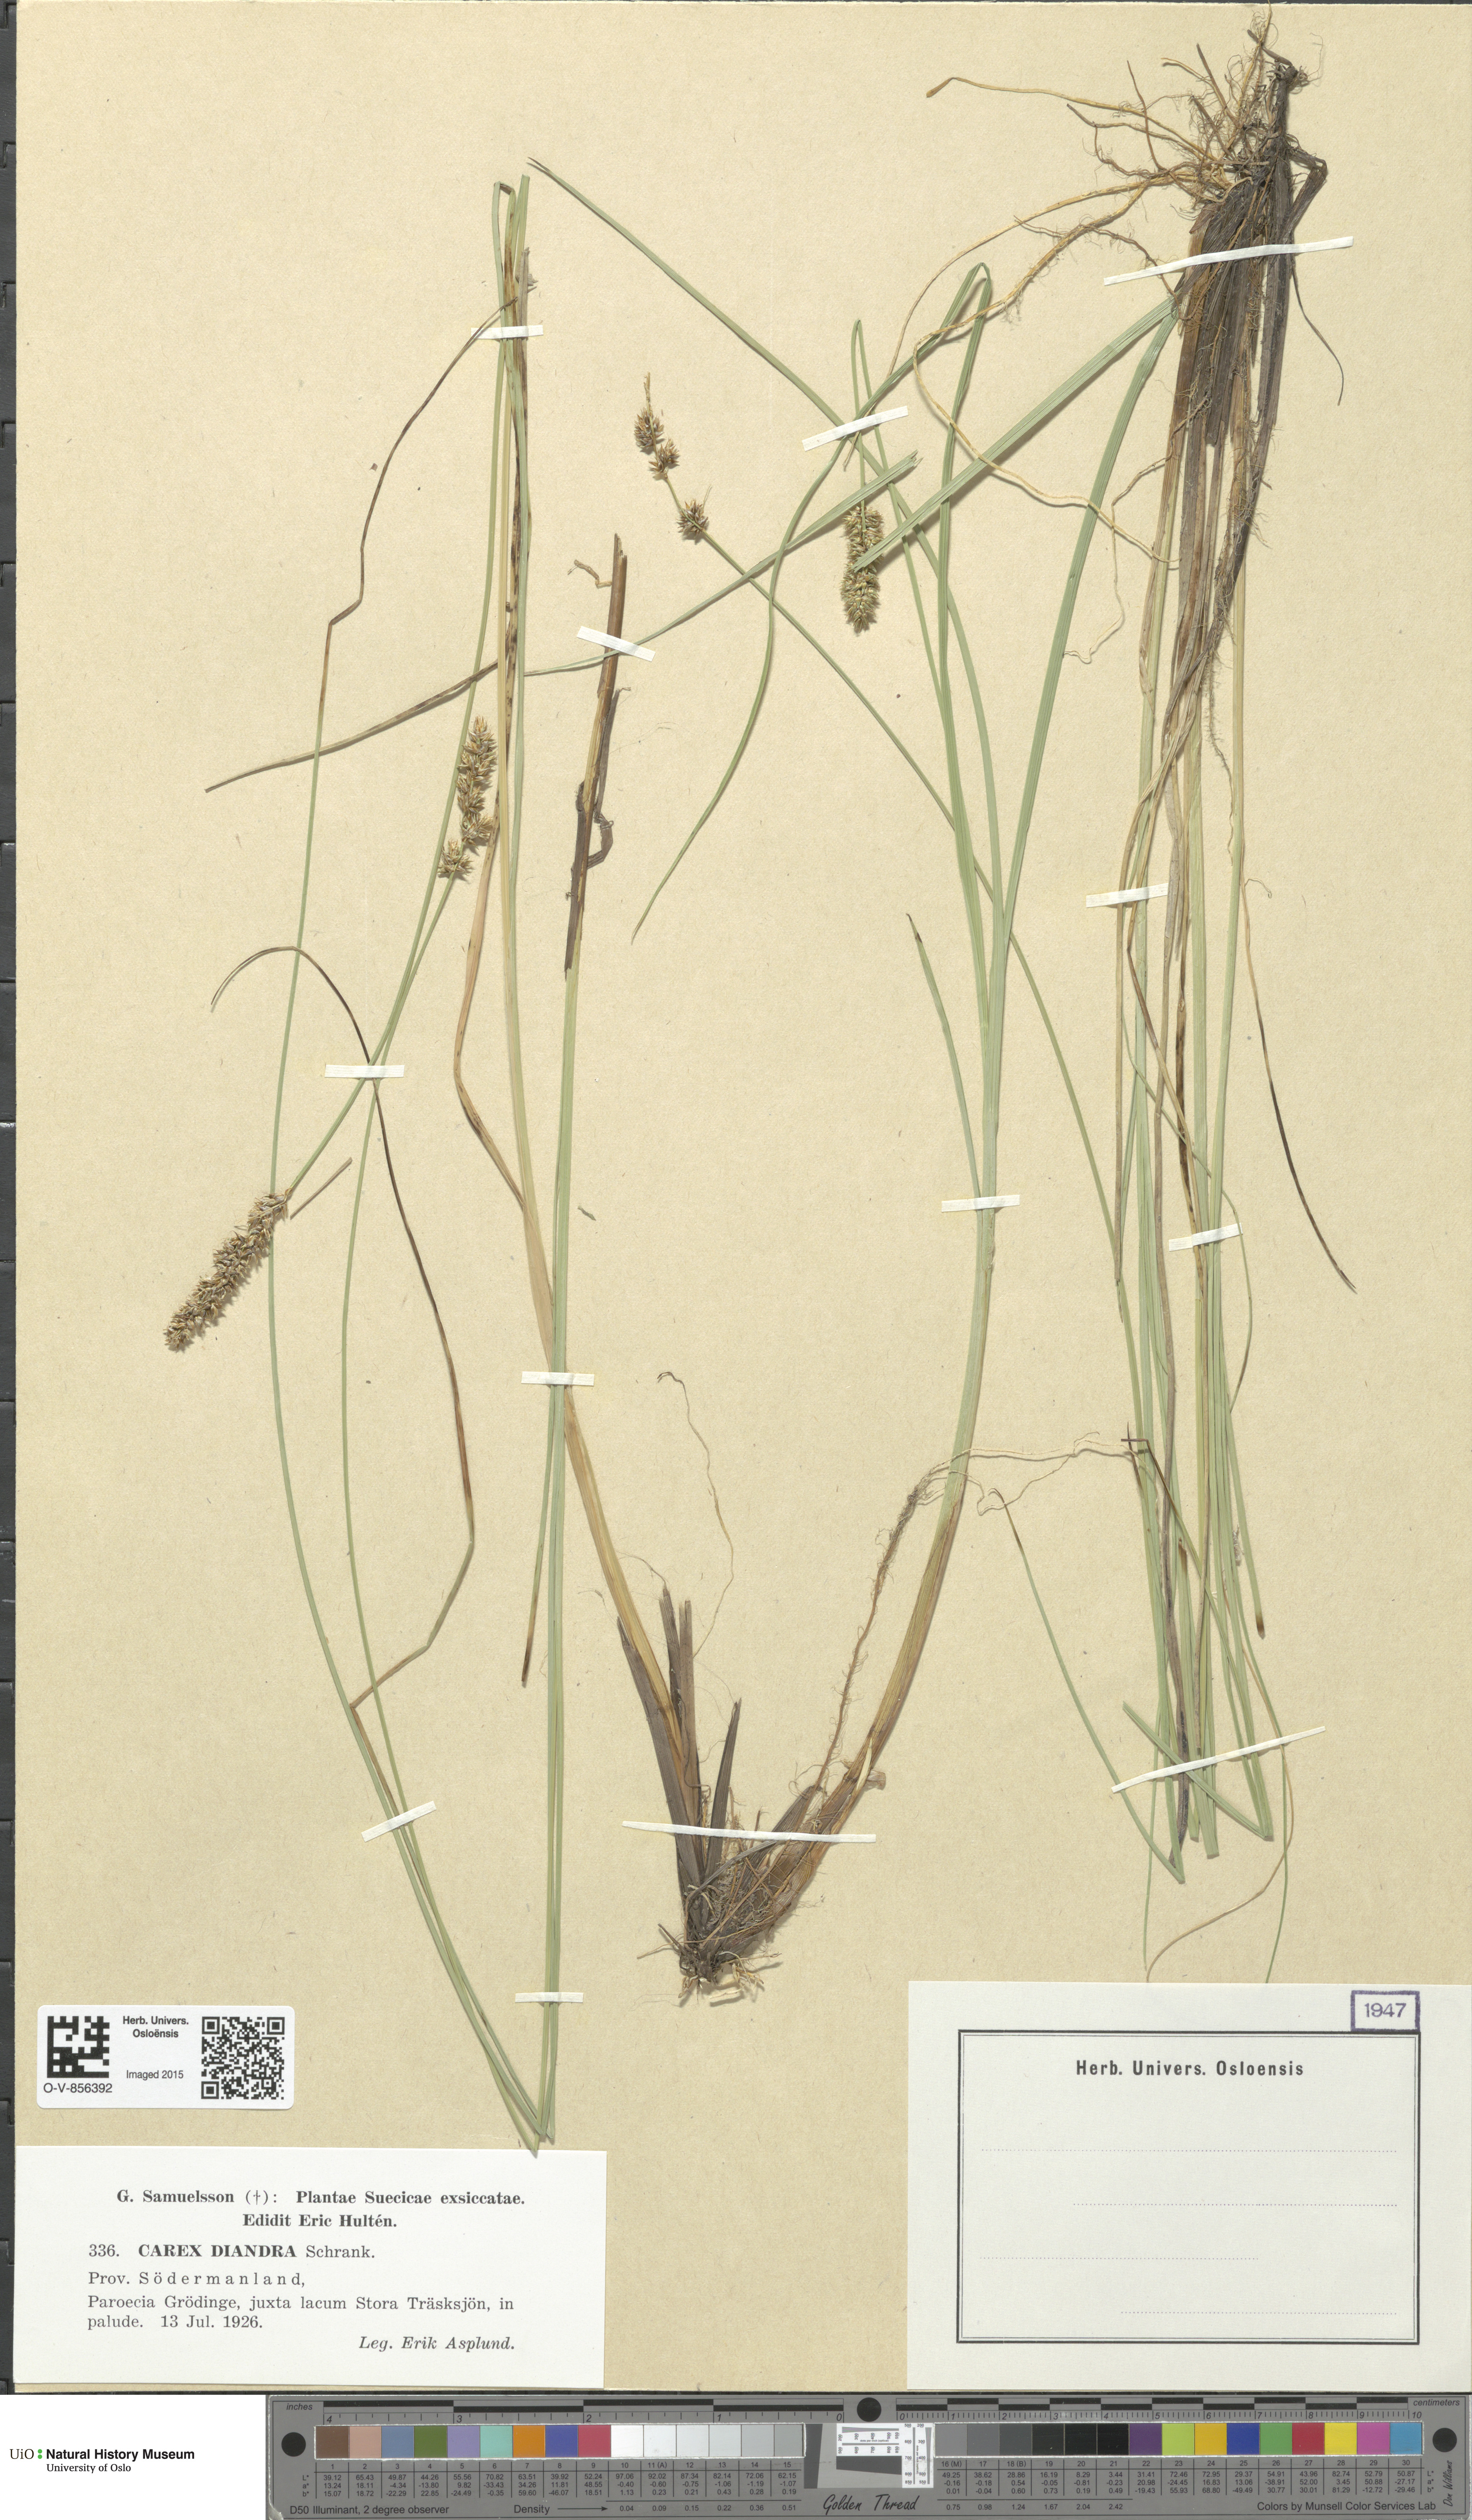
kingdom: Plantae
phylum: Tracheophyta
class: Liliopsida
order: Poales
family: Cyperaceae
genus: Carex
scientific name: Carex diandra
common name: Lesser tussock-sedge
